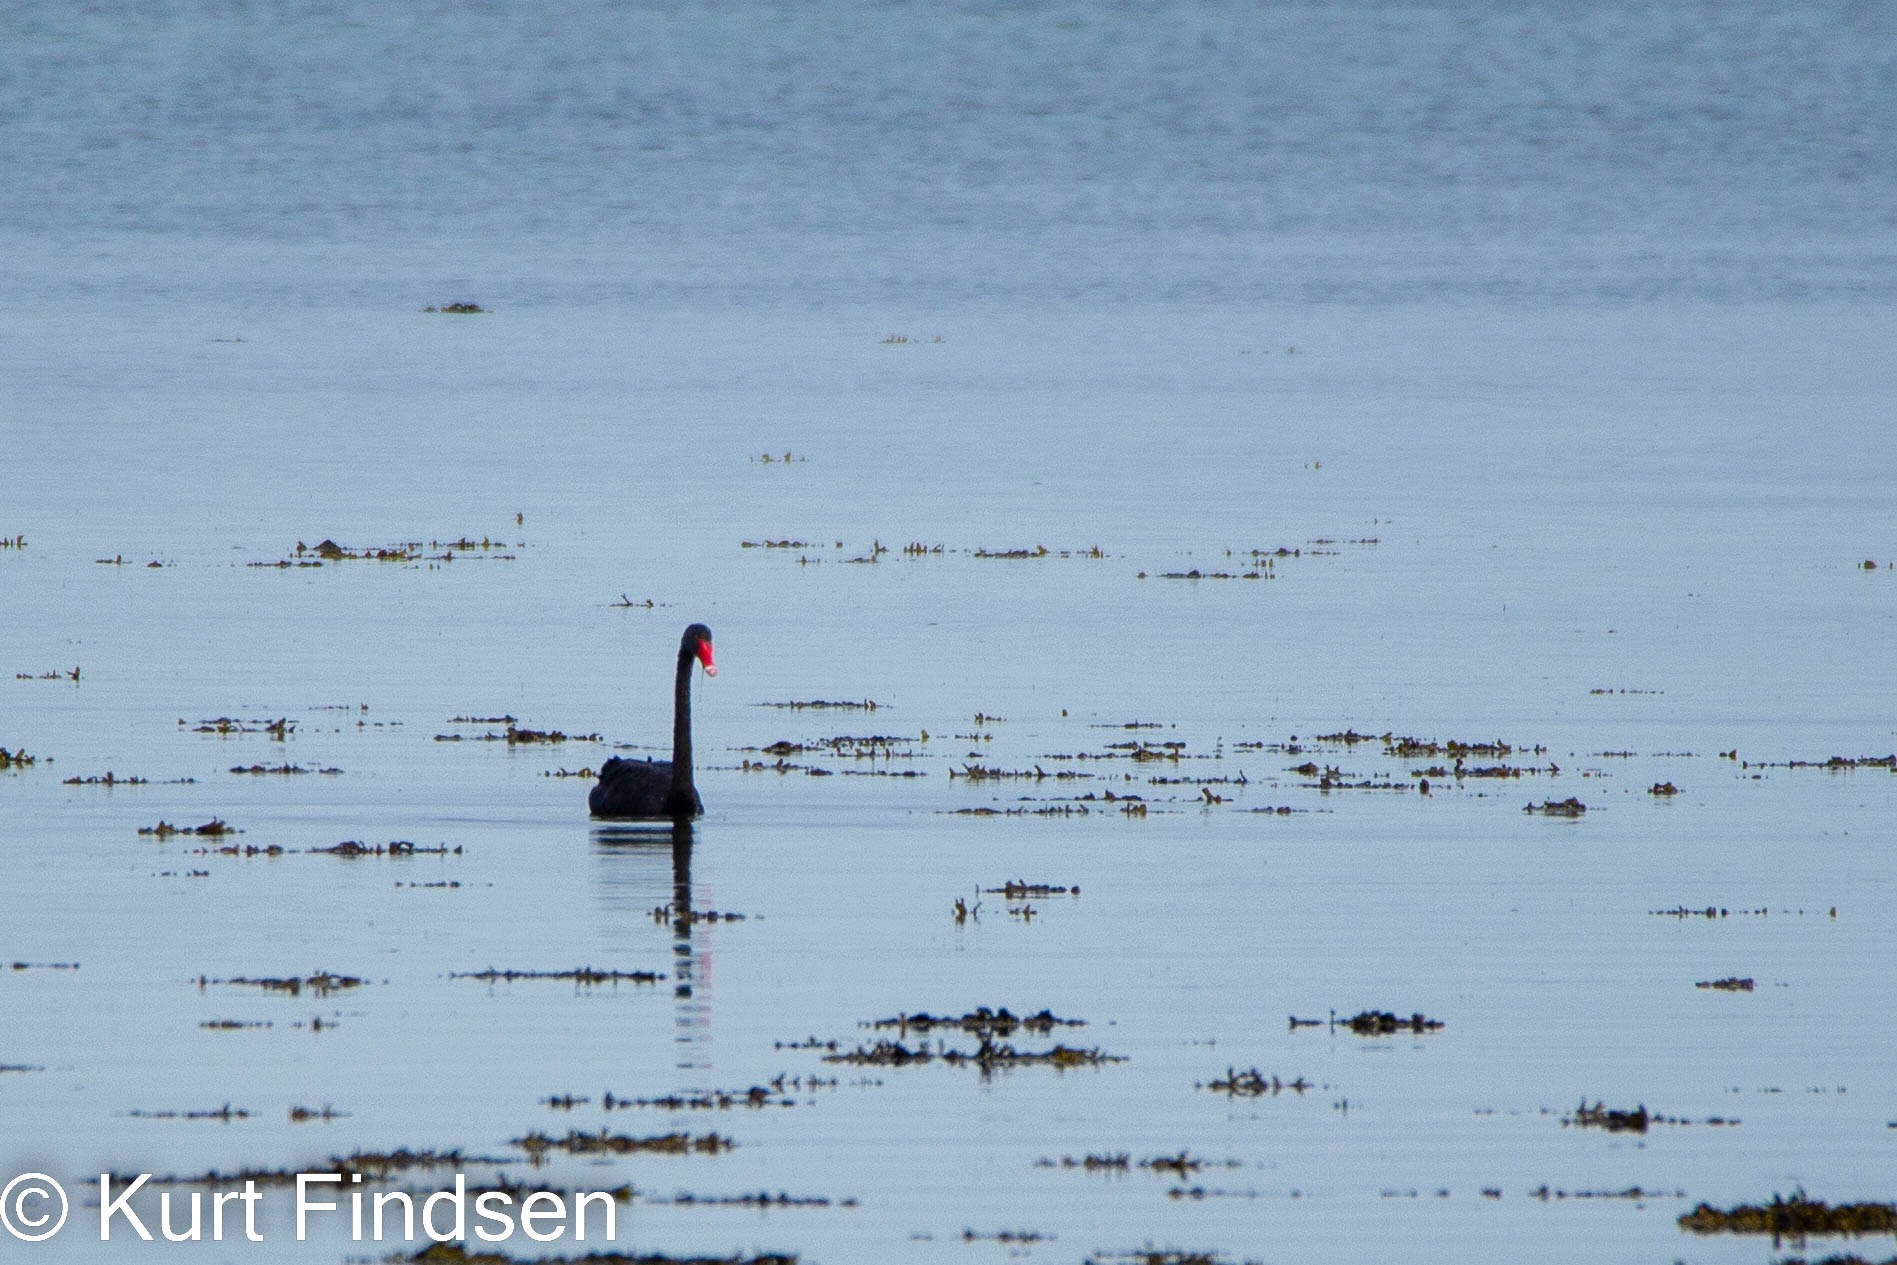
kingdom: Animalia
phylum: Chordata
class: Aves
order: Anseriformes
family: Anatidae
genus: Cygnus
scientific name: Cygnus atratus
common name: Sortsvane
